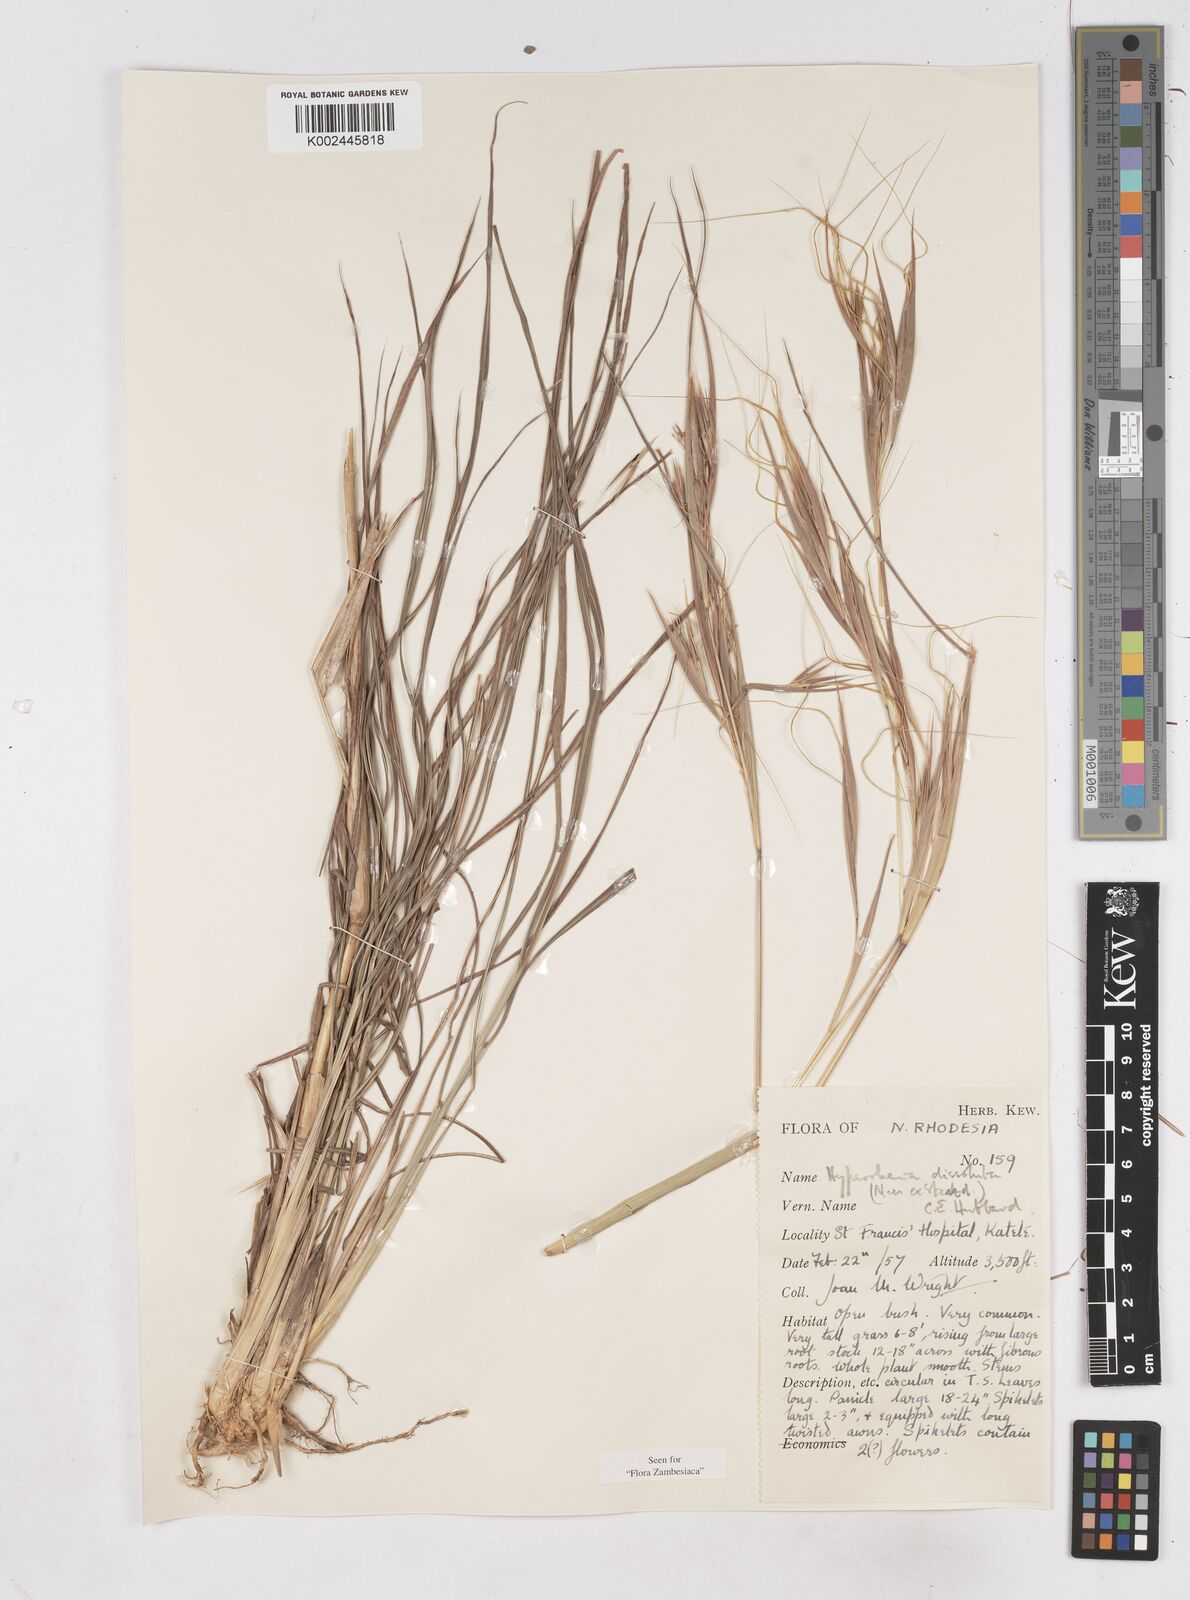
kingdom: Plantae
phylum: Tracheophyta
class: Liliopsida
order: Poales
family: Poaceae
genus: Hyperthelia
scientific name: Hyperthelia dissoluta
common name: Yellow thatching grass
